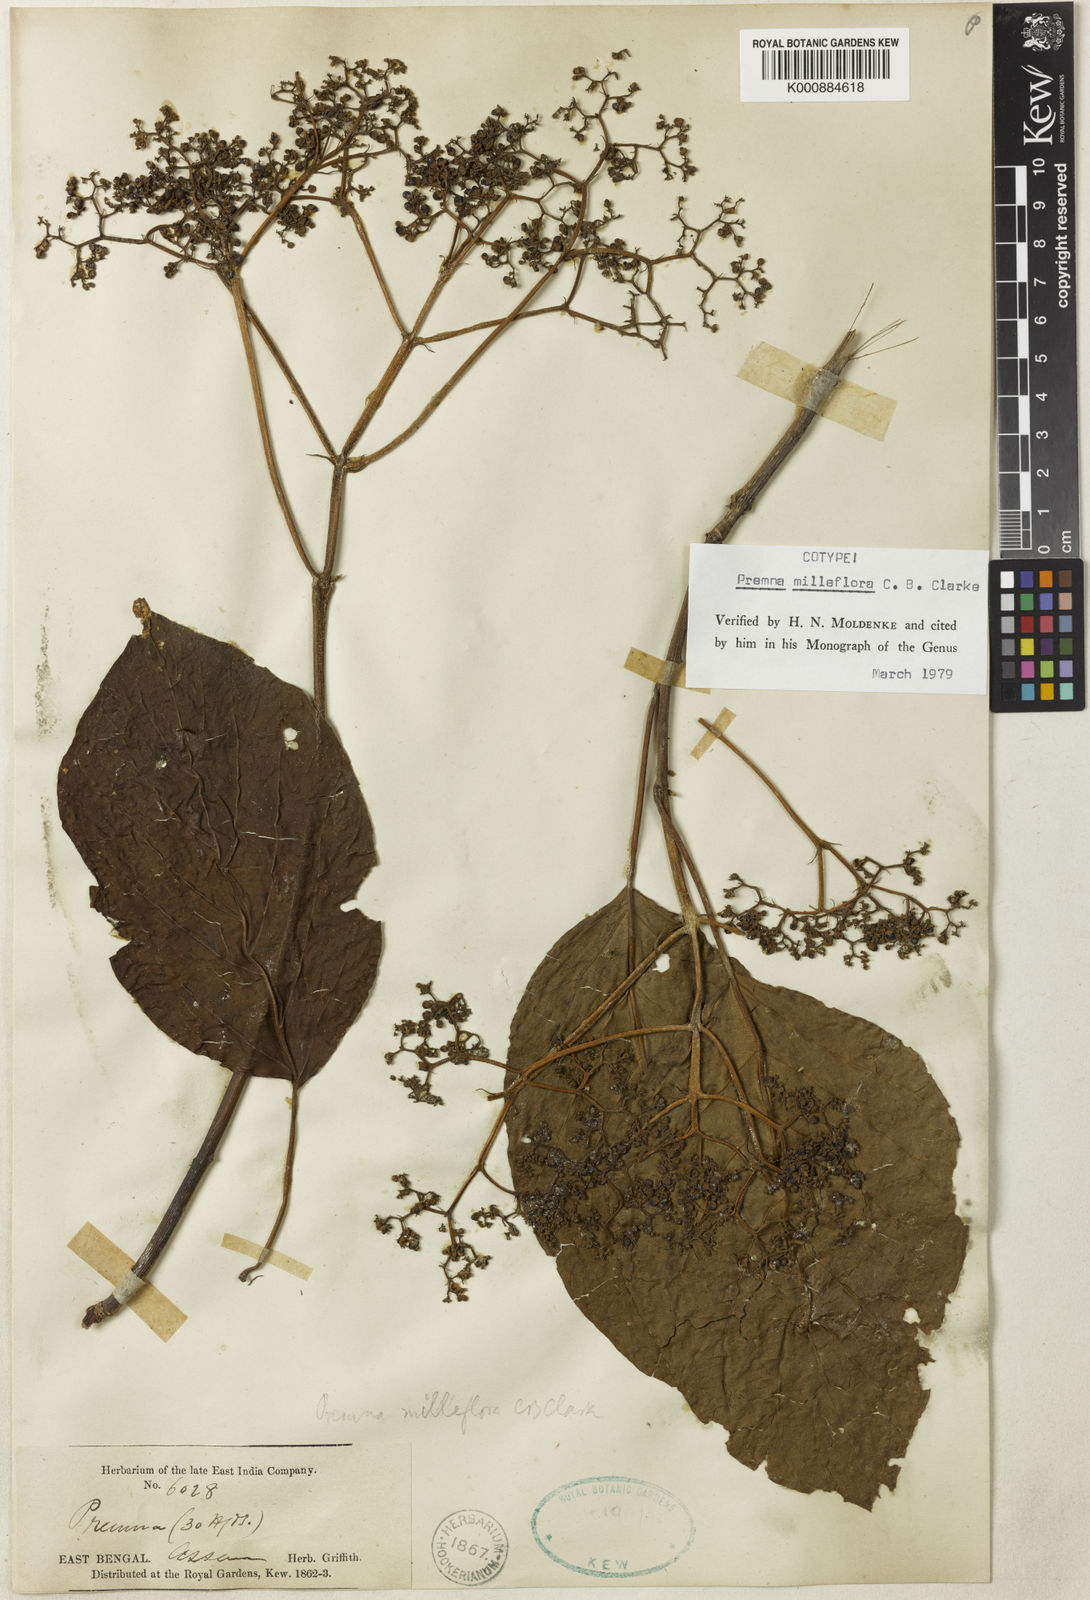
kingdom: Plantae
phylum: Tracheophyta
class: Magnoliopsida
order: Lamiales
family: Lamiaceae
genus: Premna
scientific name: Premna milleflora
